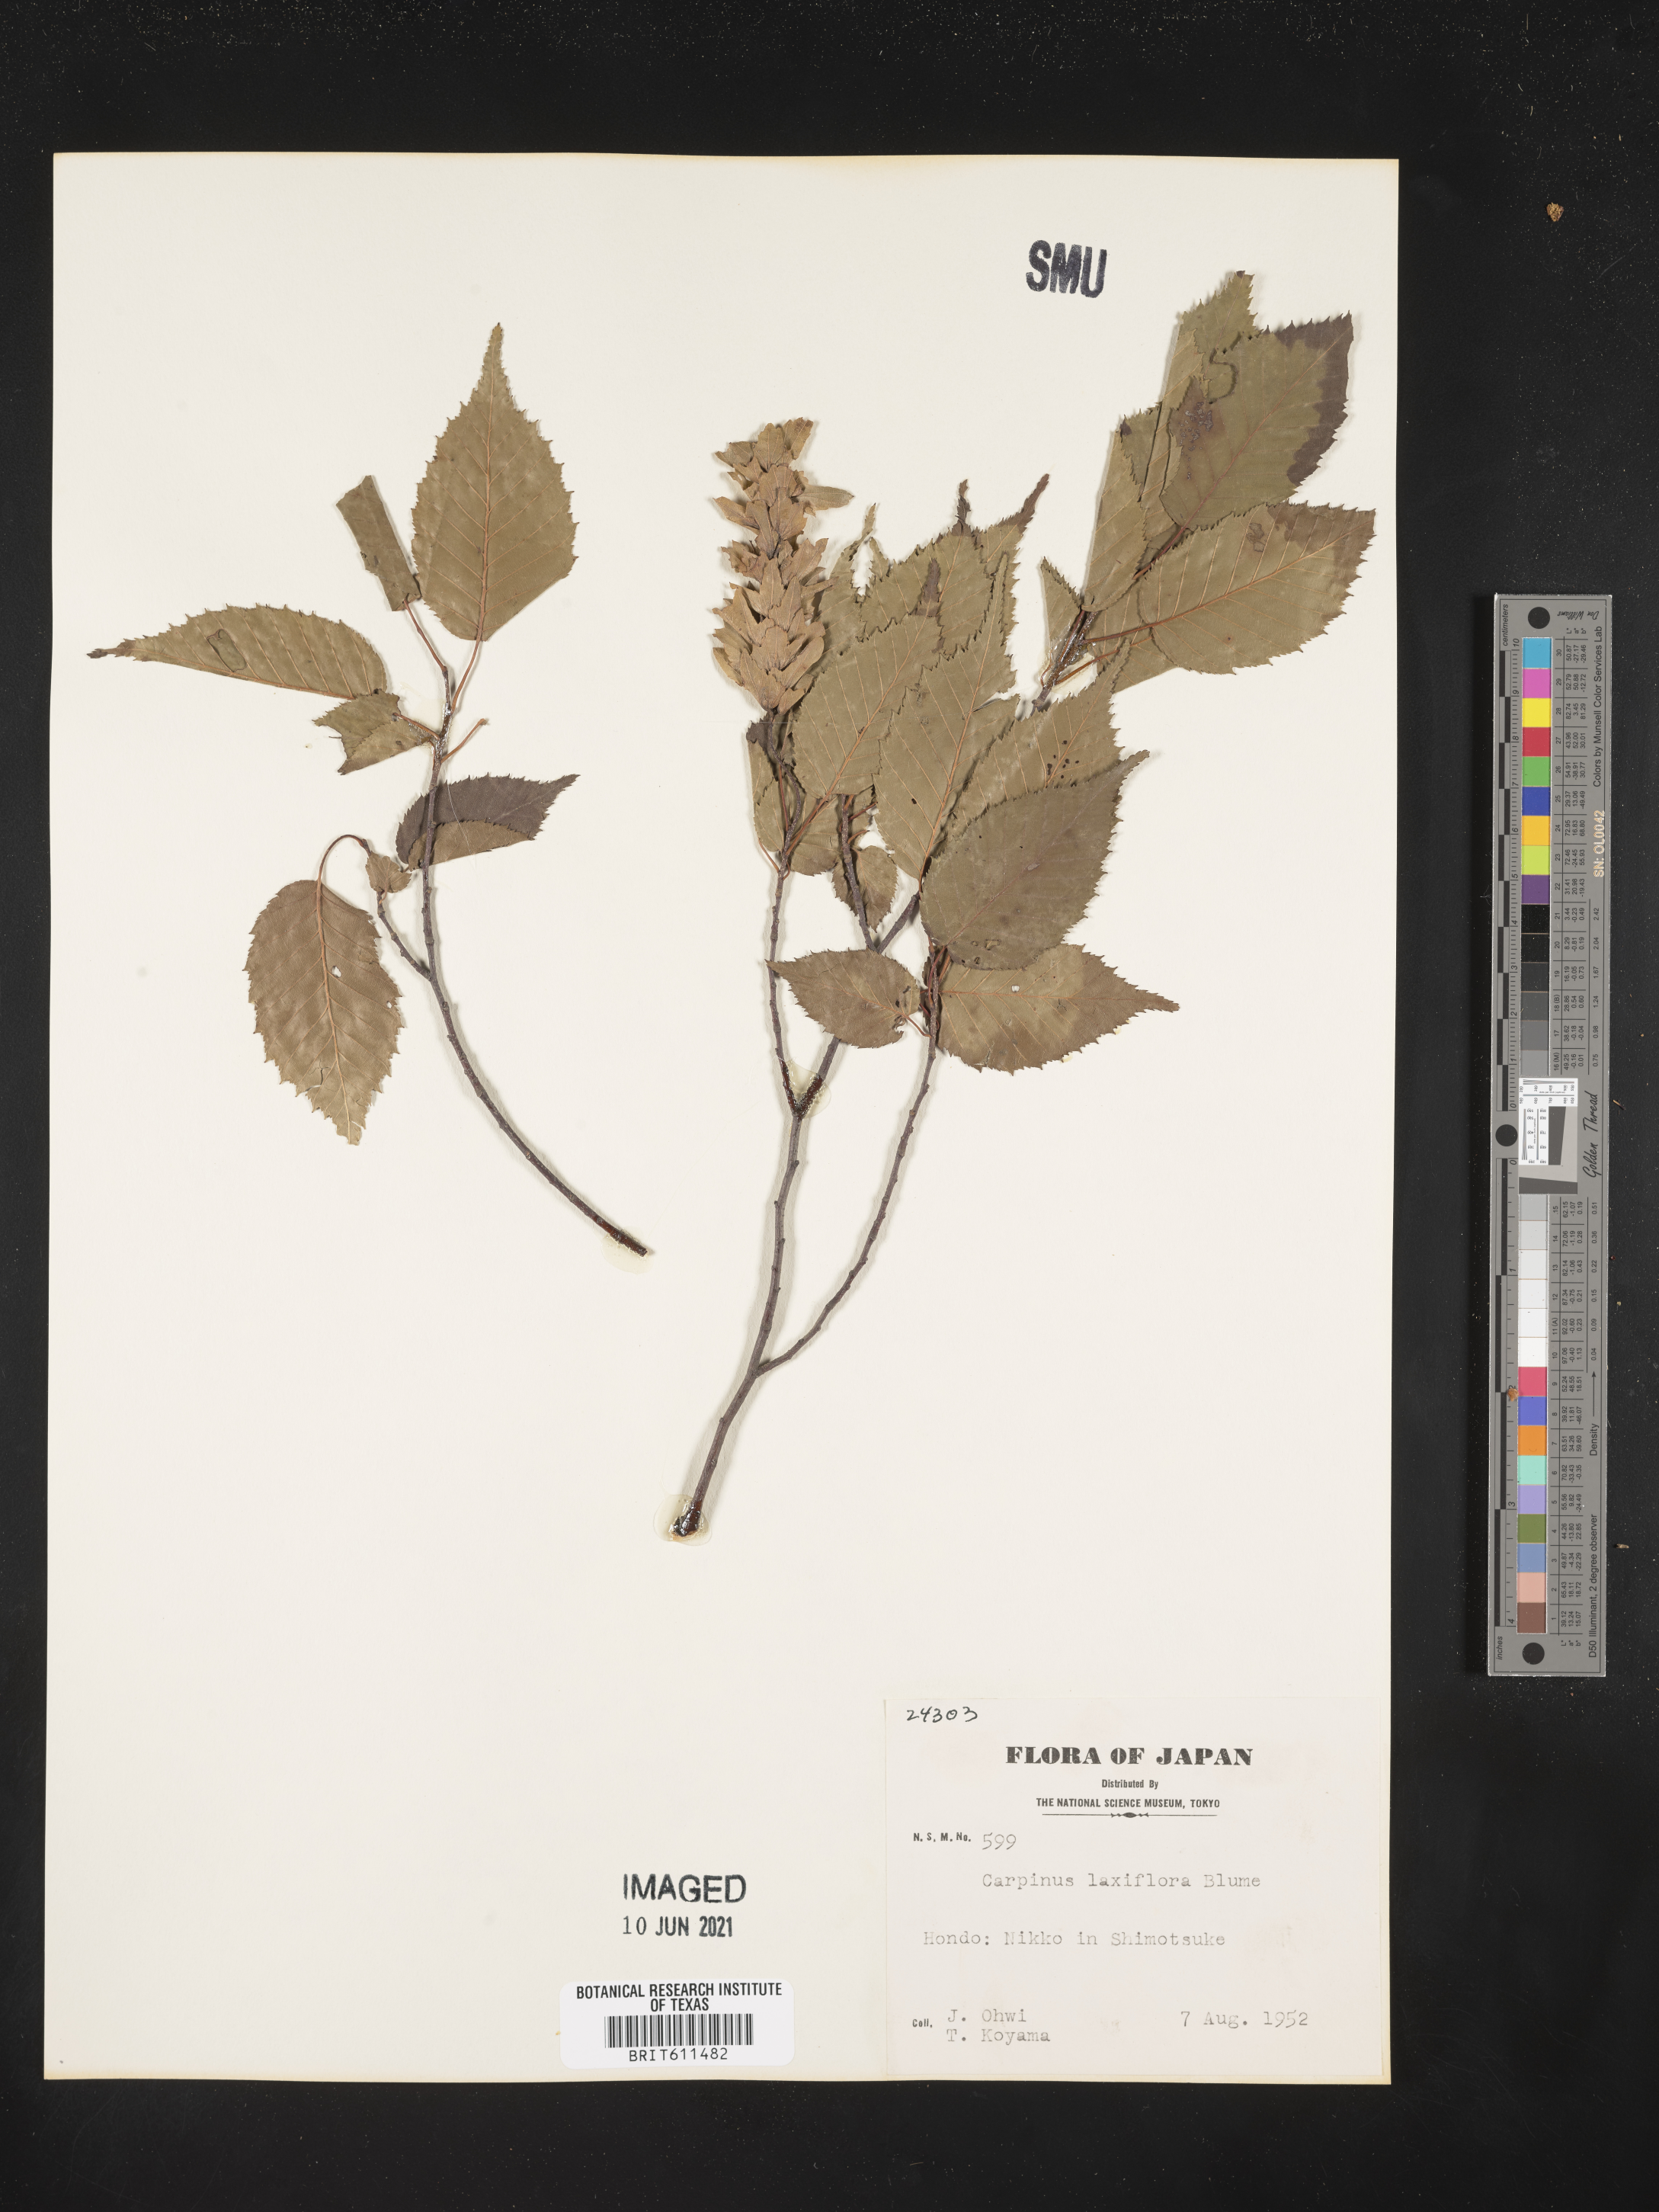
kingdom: Plantae
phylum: Tracheophyta
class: Magnoliopsida
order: Fagales
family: Betulaceae
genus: Carpinus
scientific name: Carpinus laxiflora
